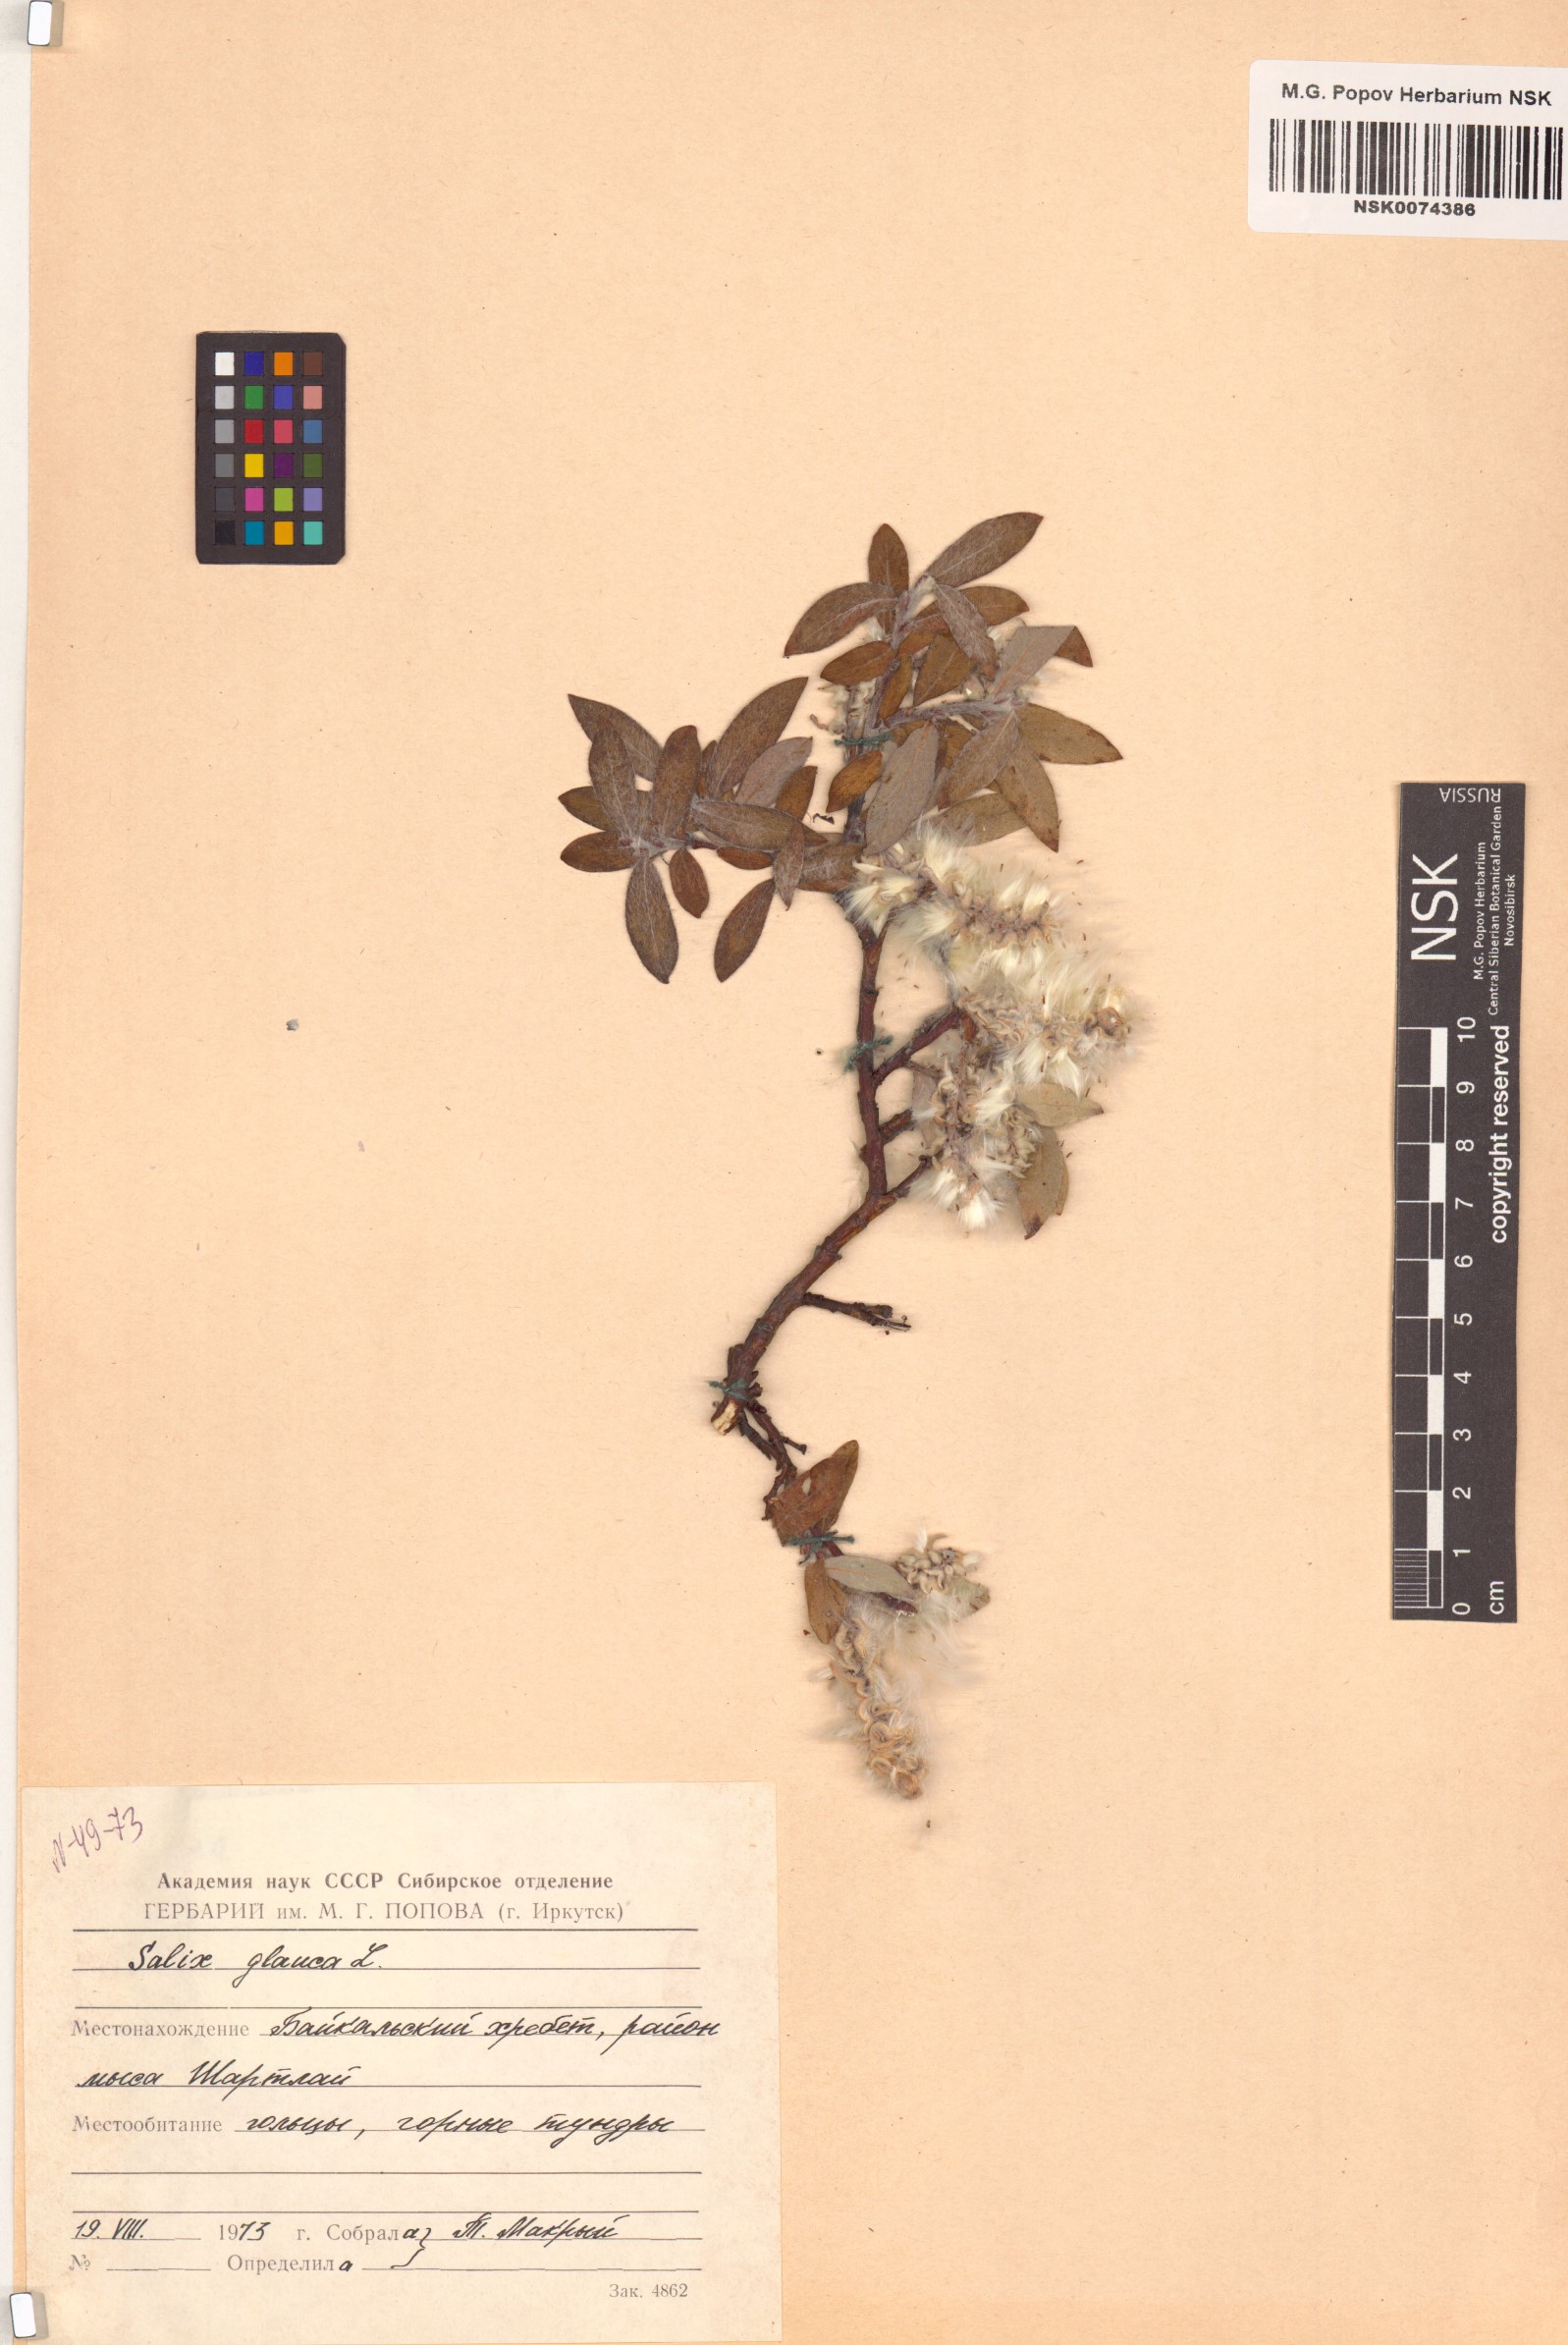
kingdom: Plantae
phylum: Tracheophyta
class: Magnoliopsida
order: Malpighiales
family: Salicaceae
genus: Salix
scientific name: Salix glauca
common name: Glaucous willow
